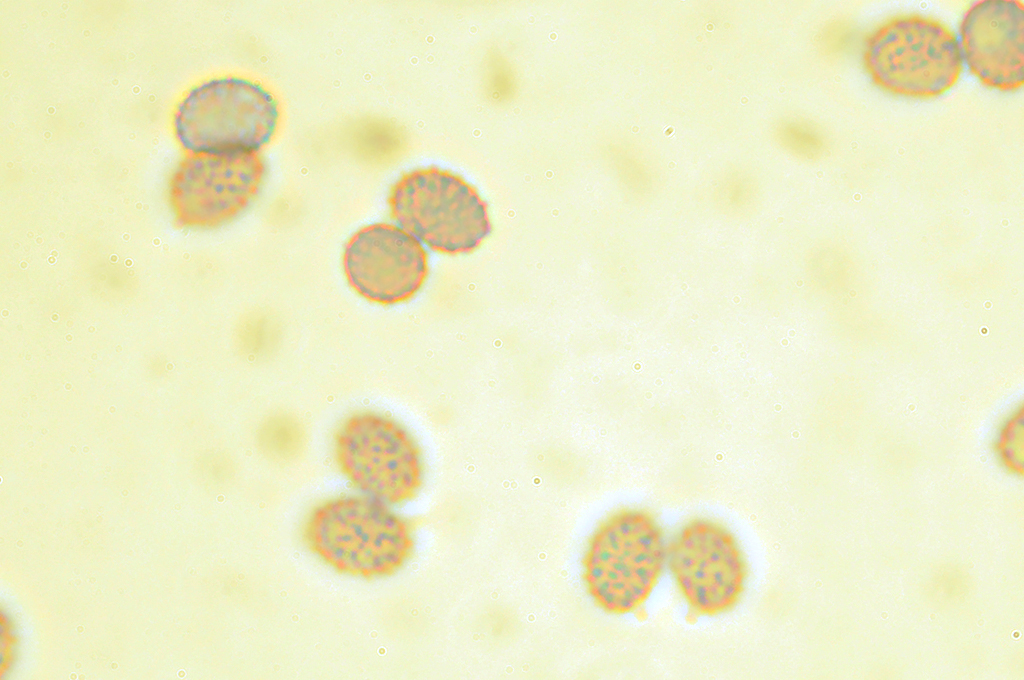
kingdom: Fungi
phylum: Basidiomycota
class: Agaricomycetes
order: Russulales
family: Russulaceae
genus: Russula
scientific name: Russula
